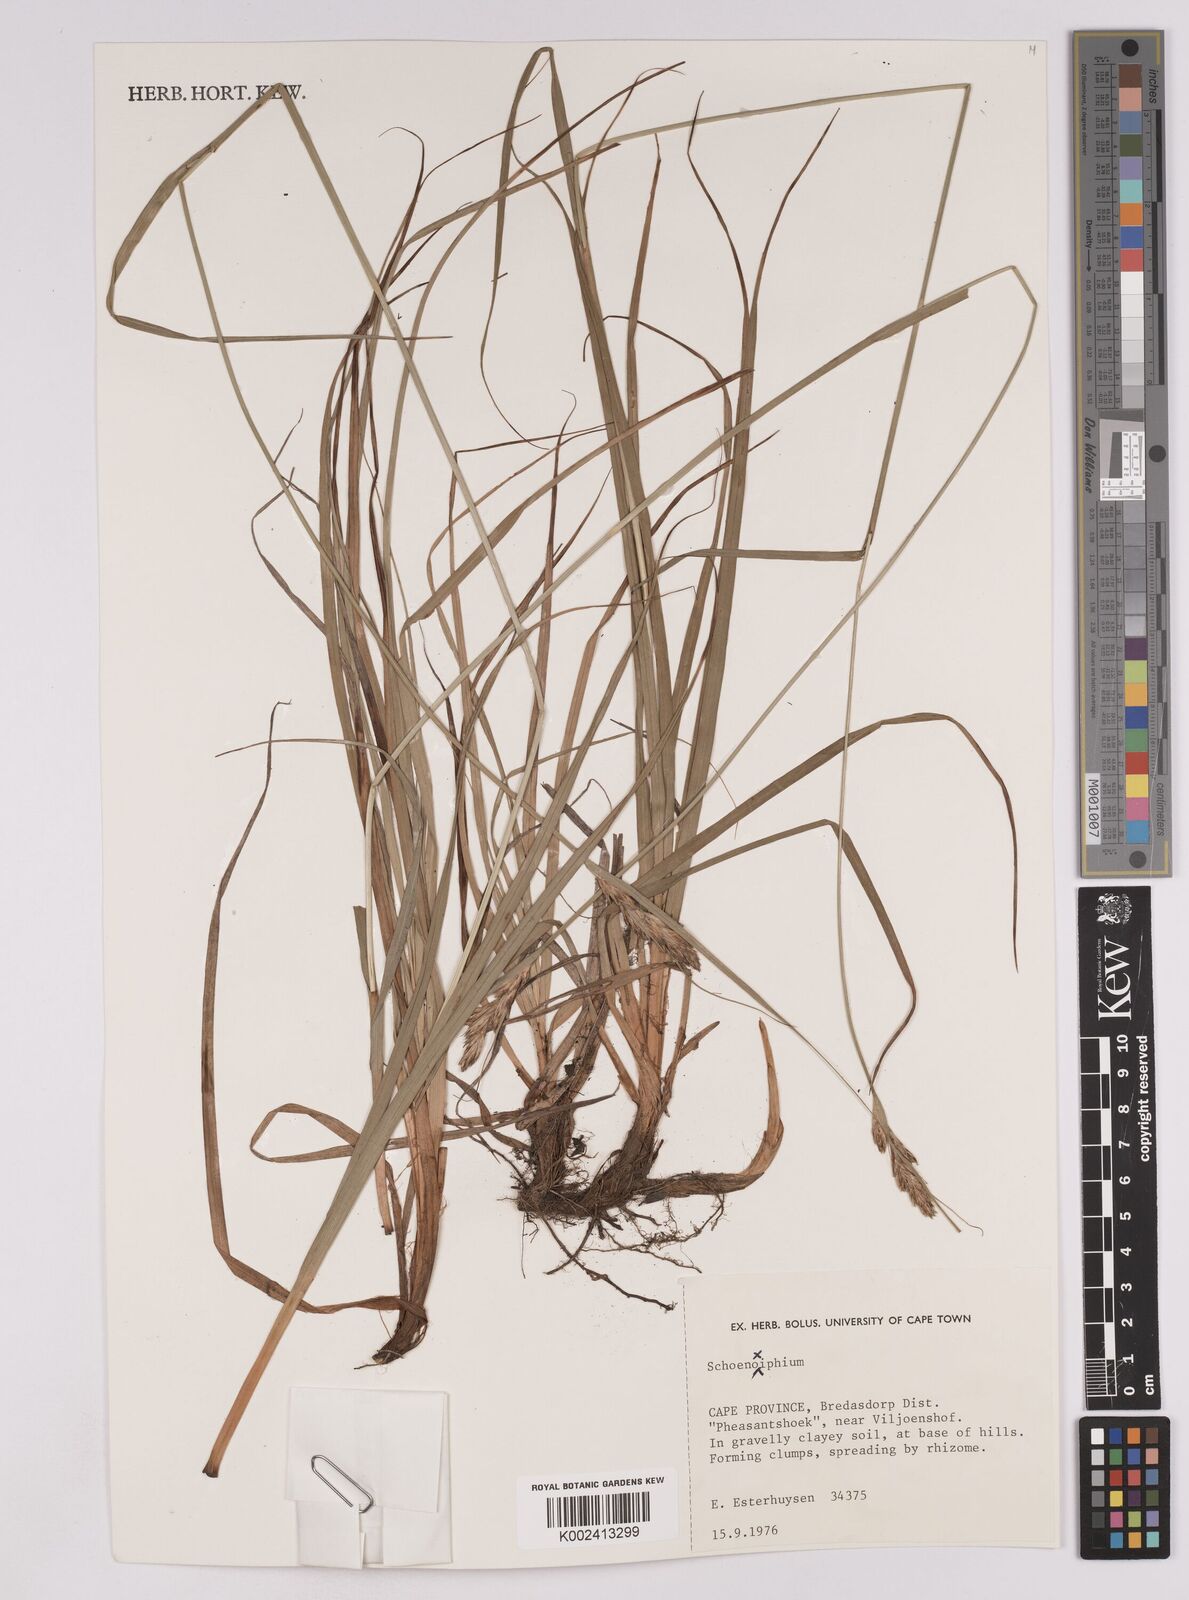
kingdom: Plantae
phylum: Tracheophyta
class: Liliopsida
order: Poales
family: Cyperaceae
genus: Carex
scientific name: Carex
